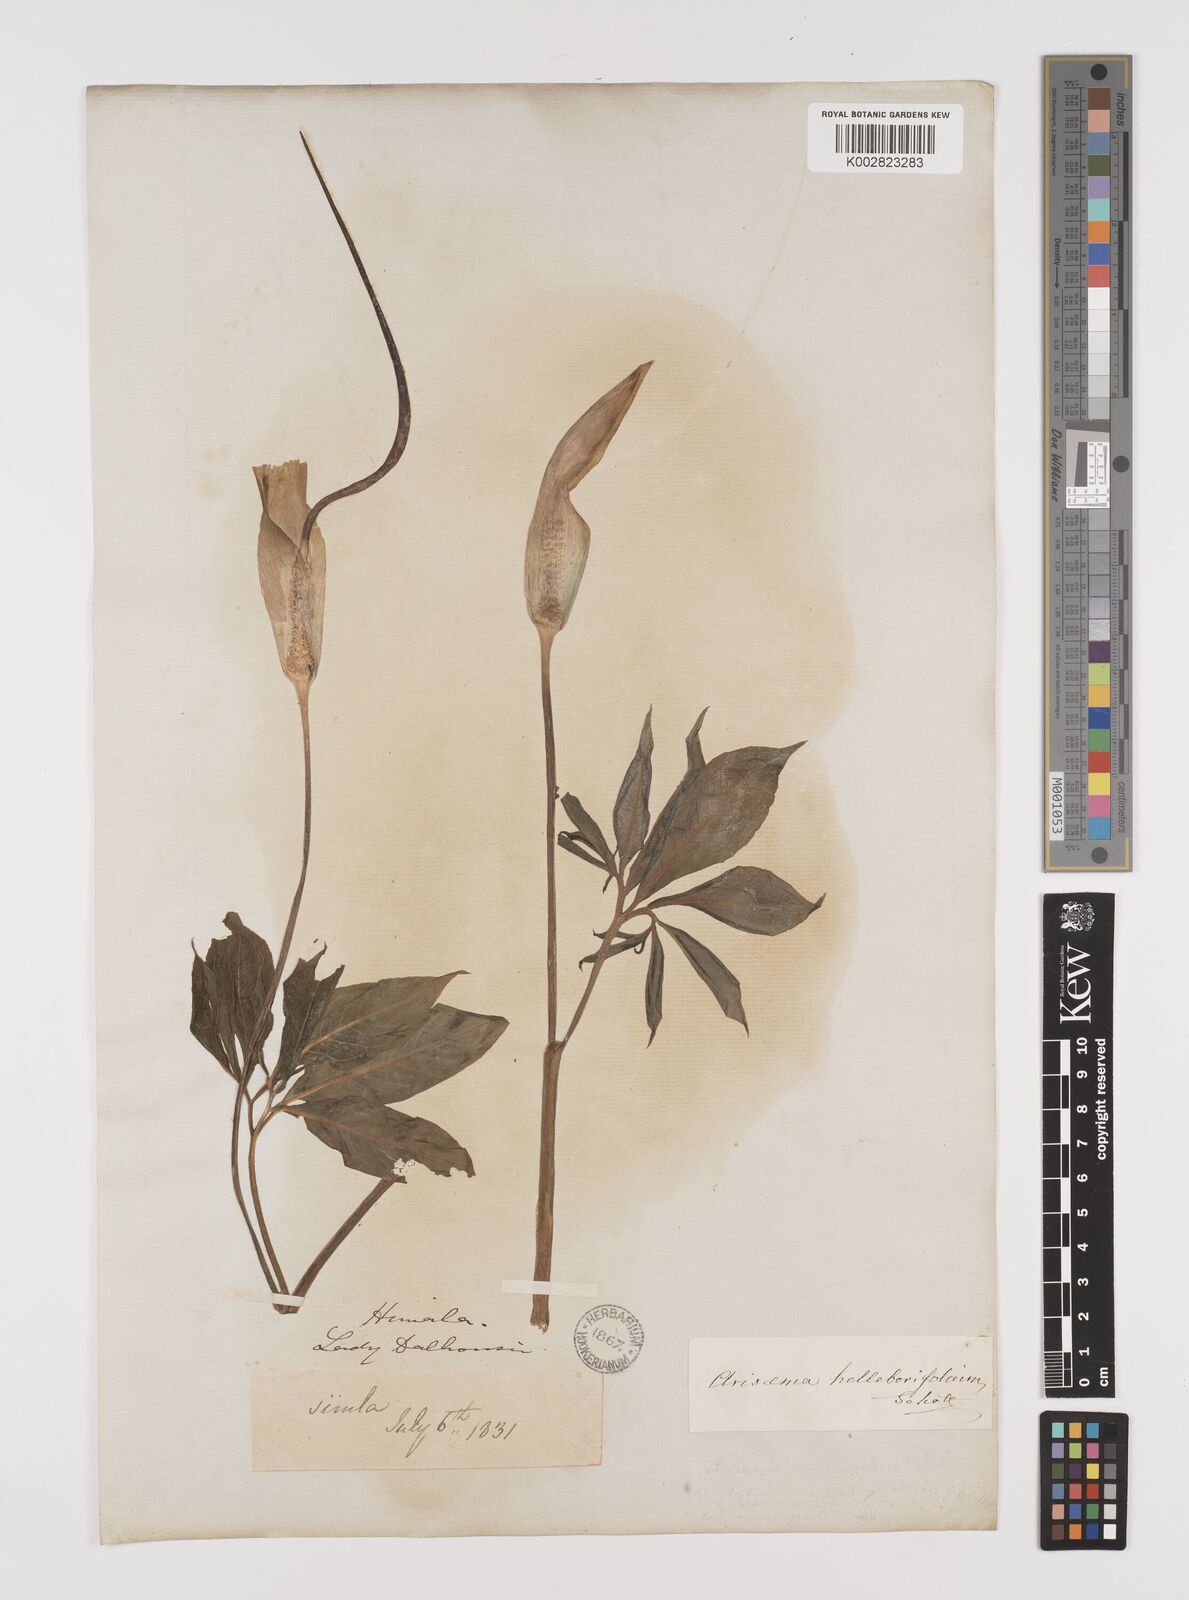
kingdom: Plantae
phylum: Tracheophyta
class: Liliopsida
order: Alismatales
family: Araceae
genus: Arisaema
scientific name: Arisaema tortuosum
